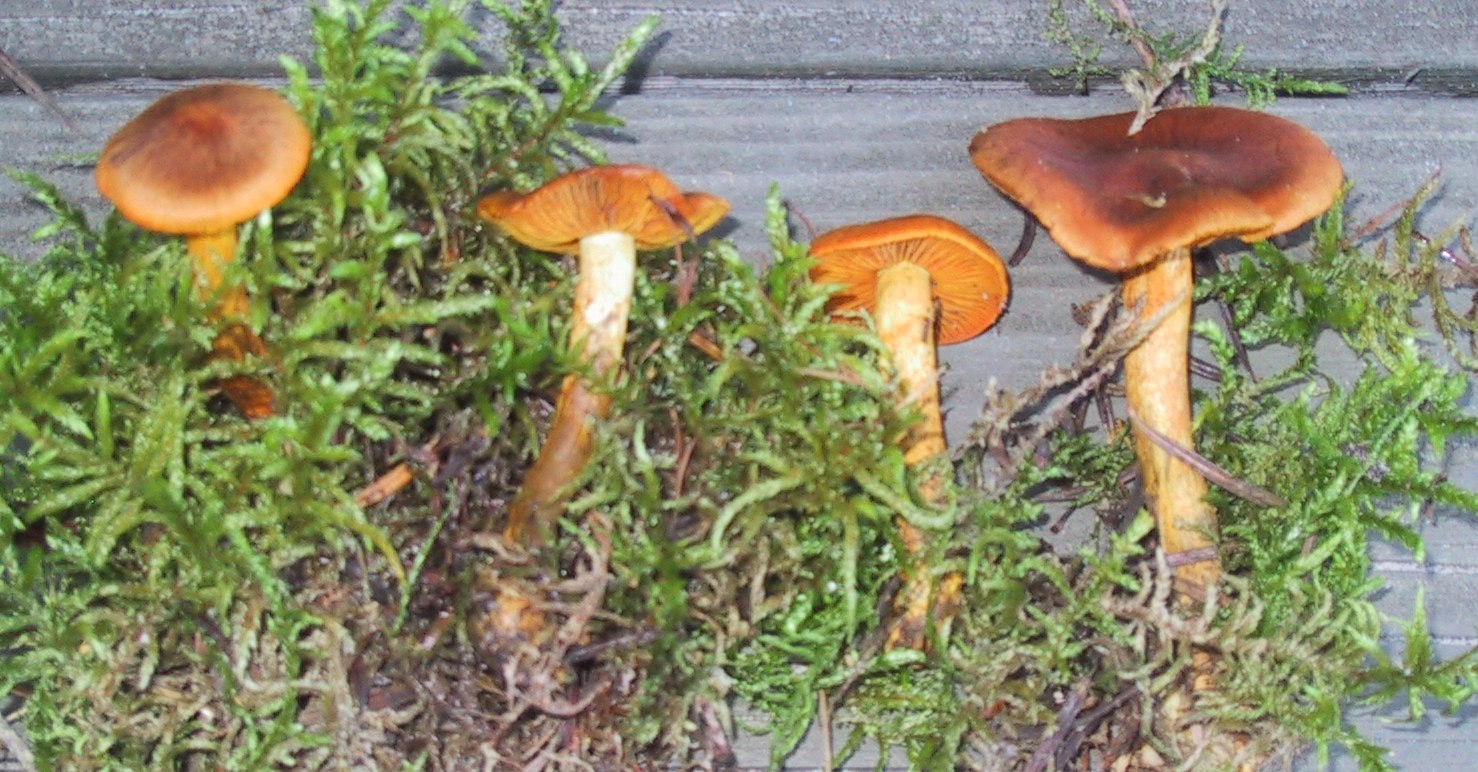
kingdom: Fungi
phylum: Basidiomycota
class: Agaricomycetes
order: Agaricales
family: Cortinariaceae
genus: Cortinarius
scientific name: Cortinarius cinnamomeus
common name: kanel-slørhat
